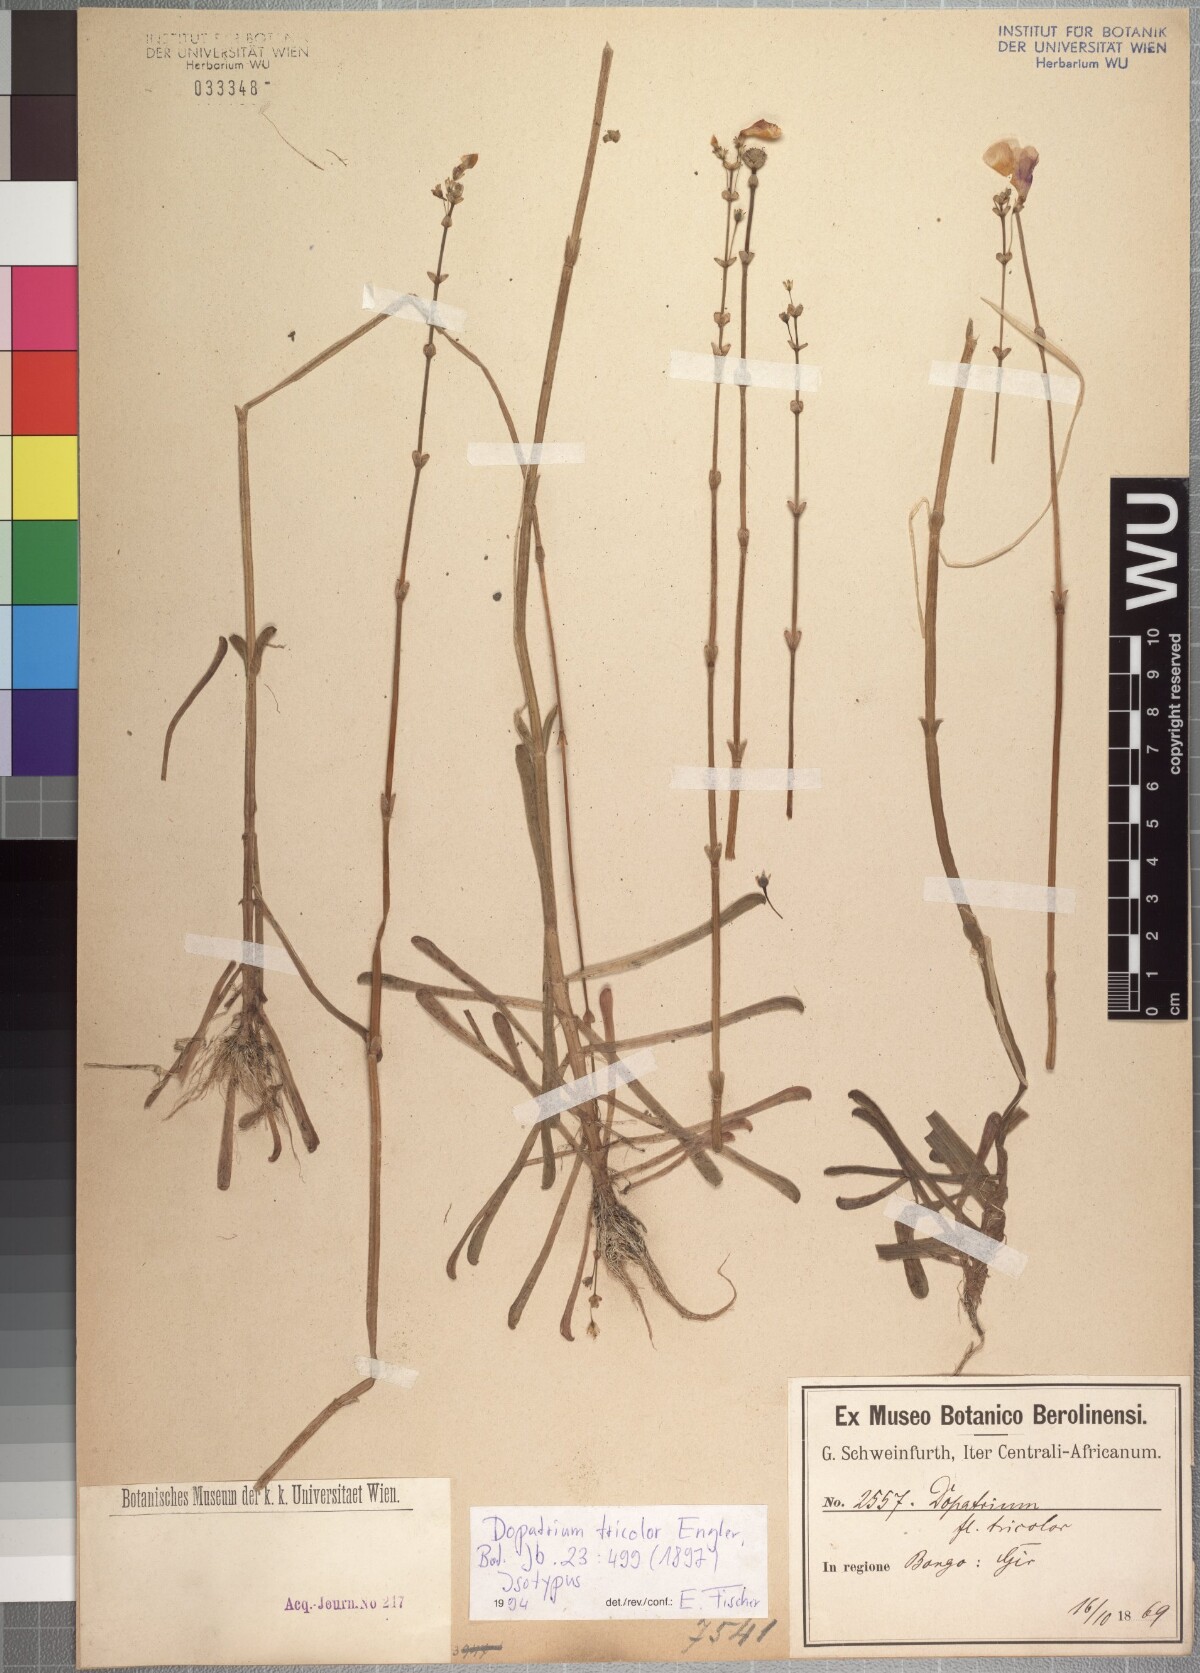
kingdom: Plantae
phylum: Tracheophyta
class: Magnoliopsida
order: Lamiales
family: Plantaginaceae
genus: Dopatrium
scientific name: Dopatrium macranthum
